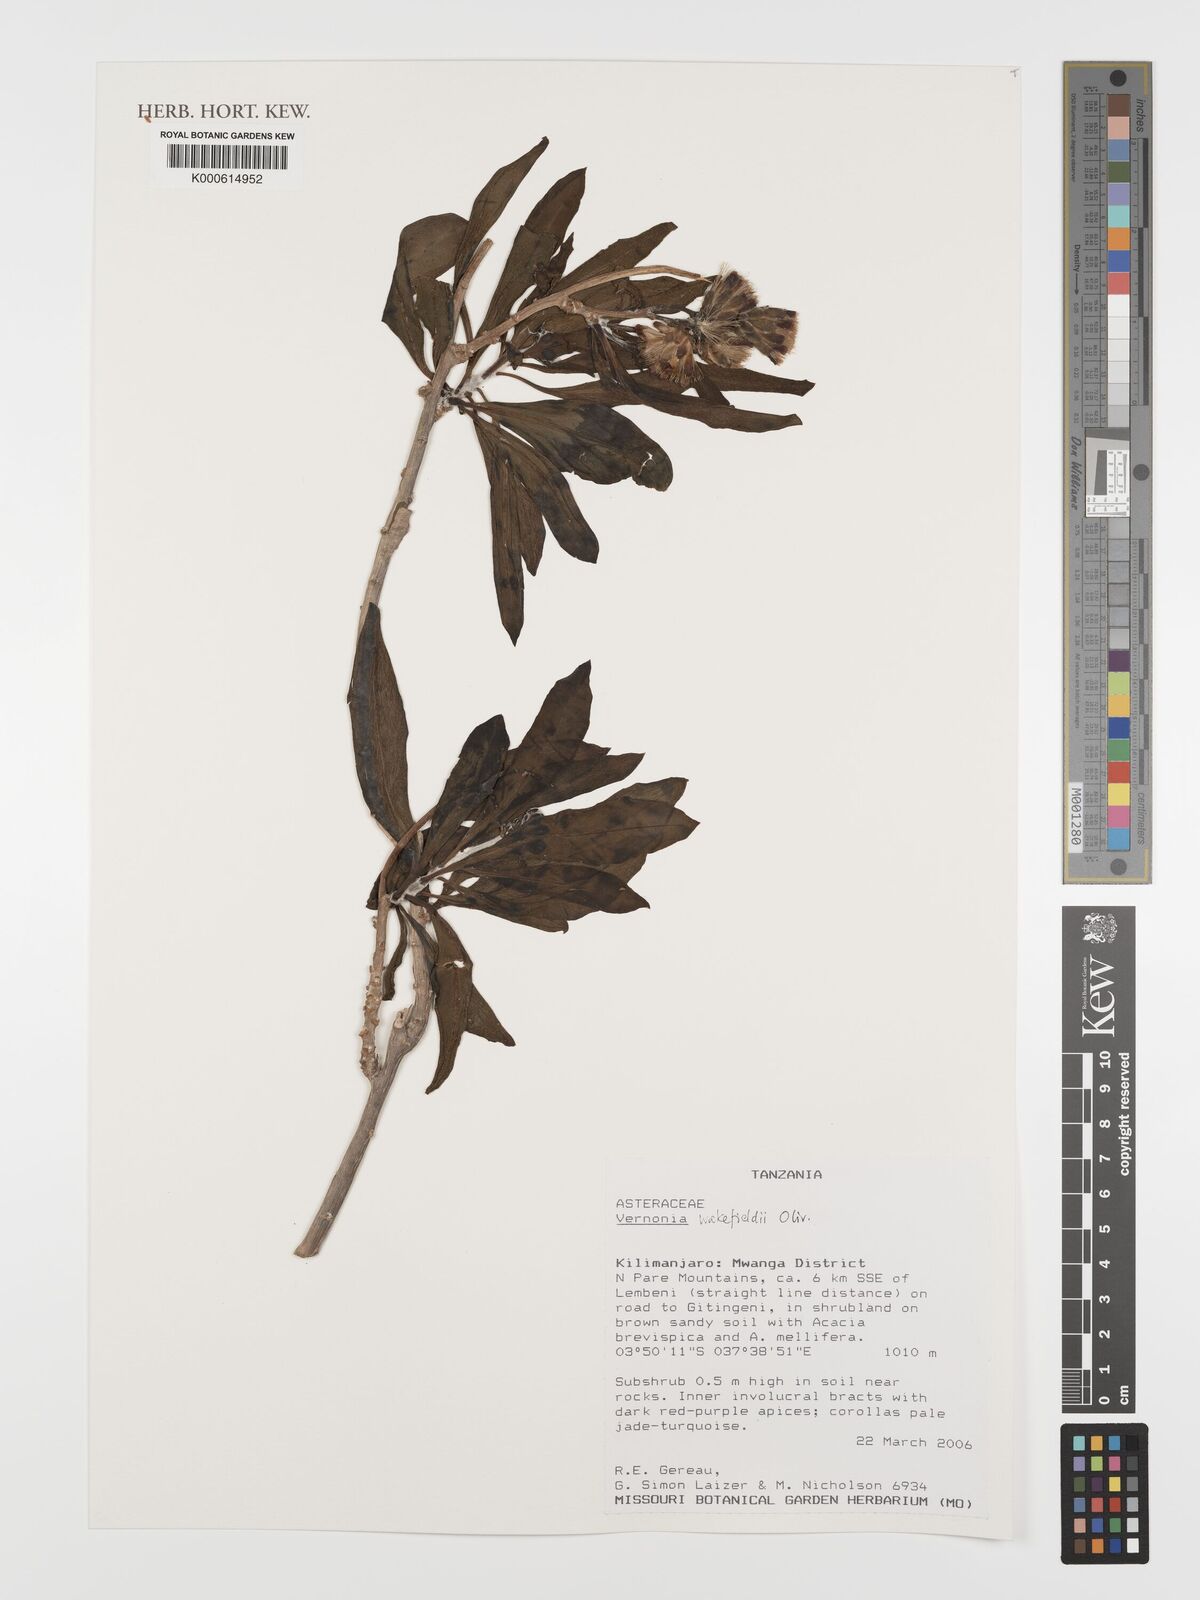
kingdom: Plantae
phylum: Tracheophyta
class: Magnoliopsida
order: Asterales
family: Asteraceae
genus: Vernonia
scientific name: Vernonia wakefieldii
